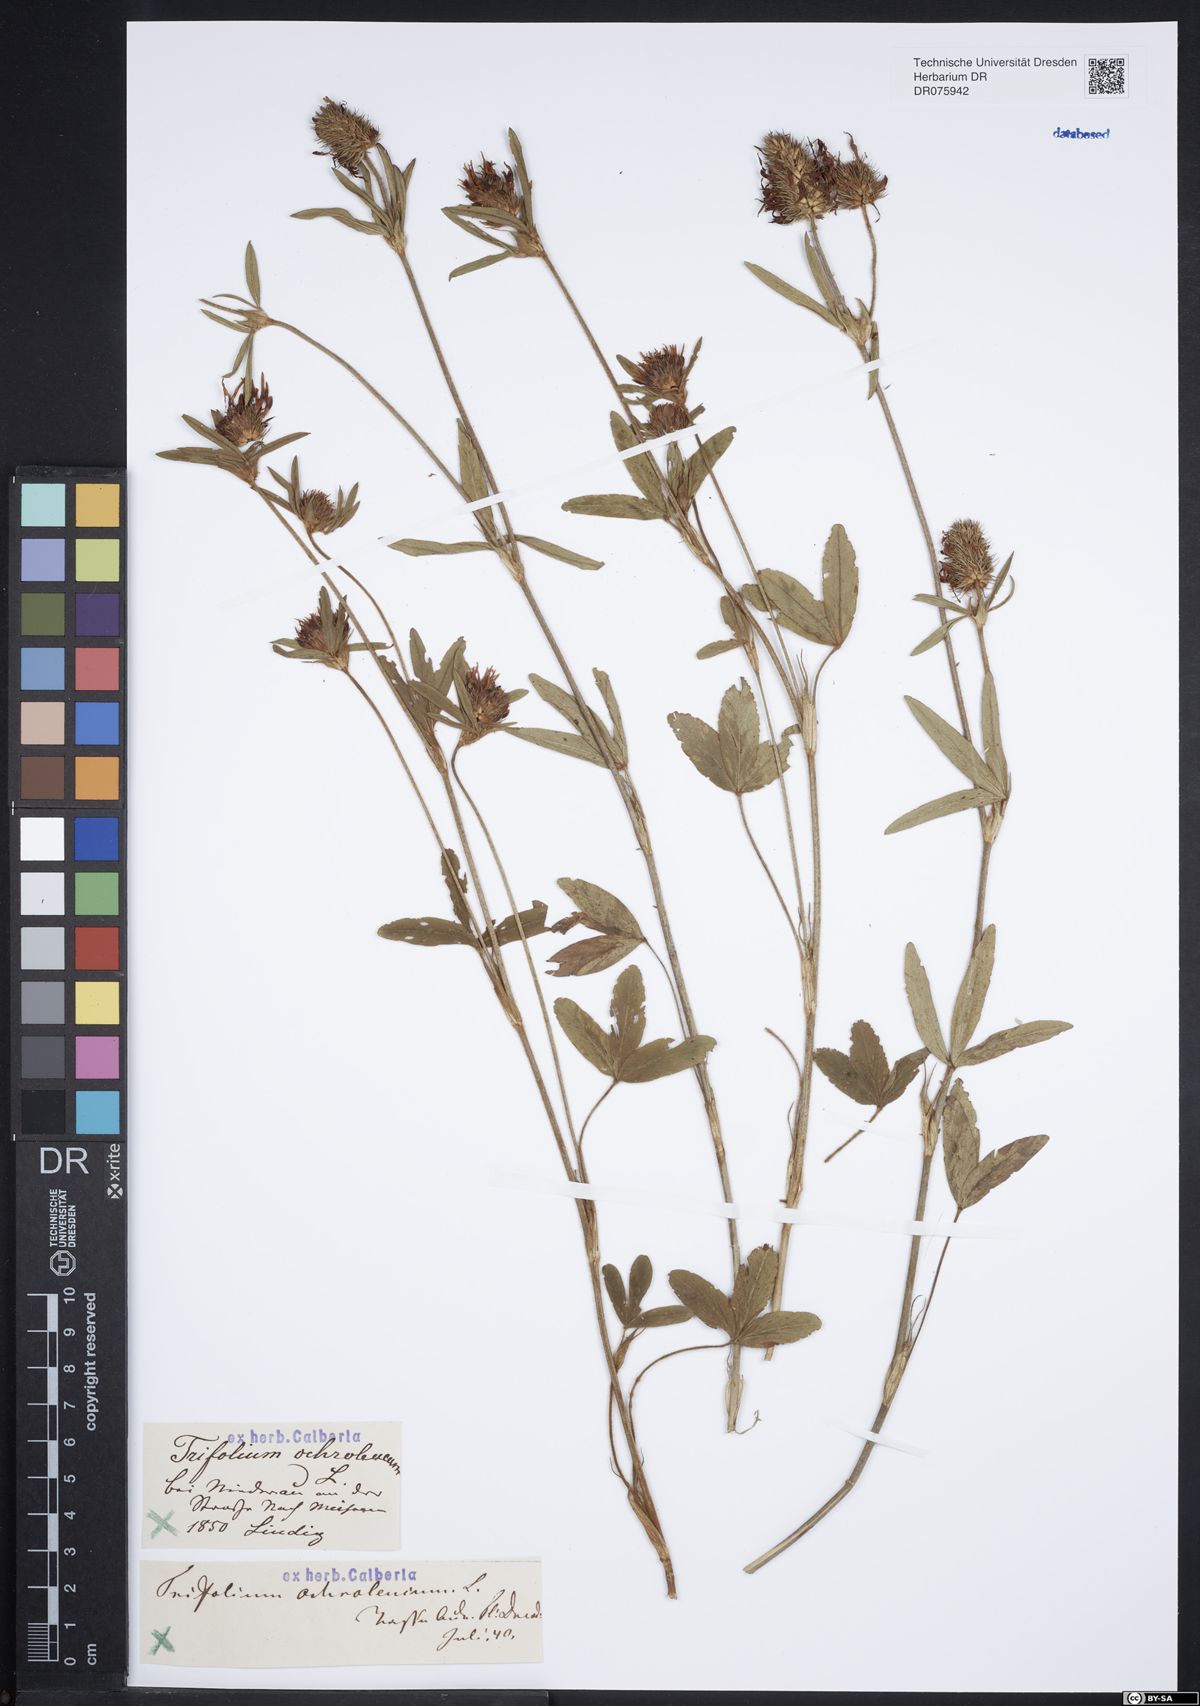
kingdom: Plantae
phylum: Tracheophyta
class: Magnoliopsida
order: Fabales
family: Fabaceae
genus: Trifolium
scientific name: Trifolium ochroleucon
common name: Sulphur clover
